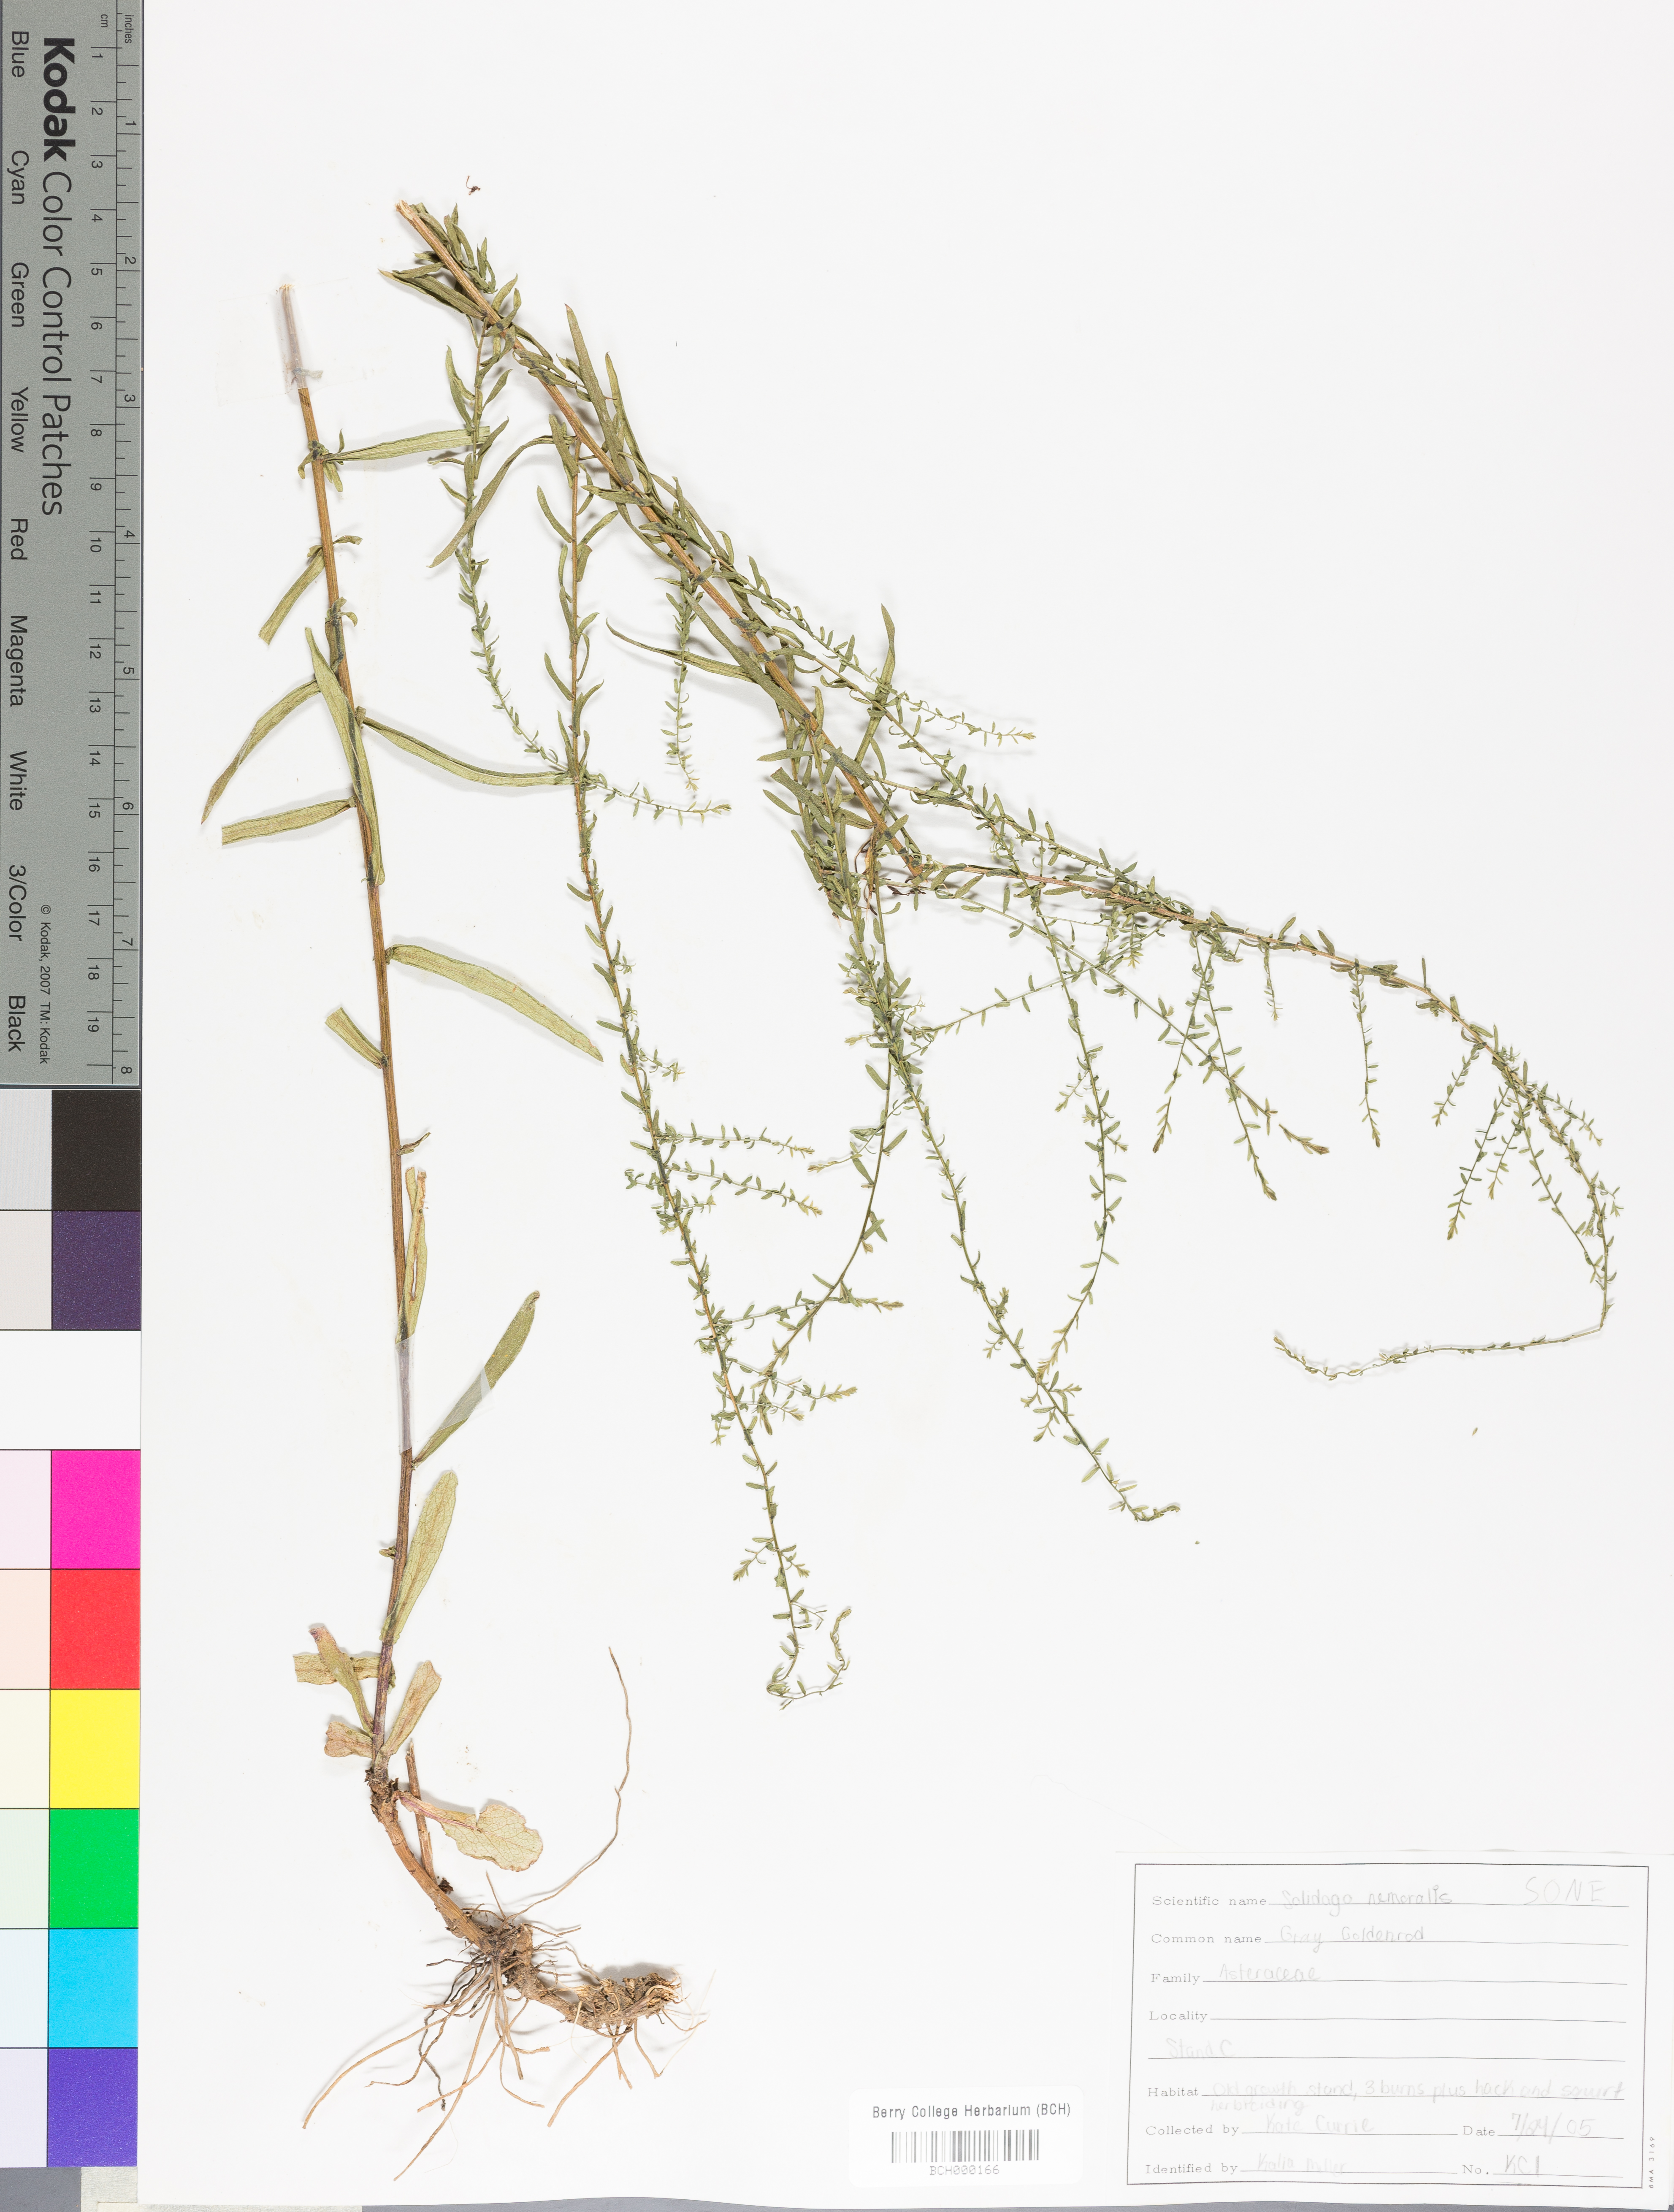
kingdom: Plantae
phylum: Tracheophyta
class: Magnoliopsida
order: Asterales
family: Asteraceae
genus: Solidago
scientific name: Solidago nemoralis
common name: Grey goldenrod
